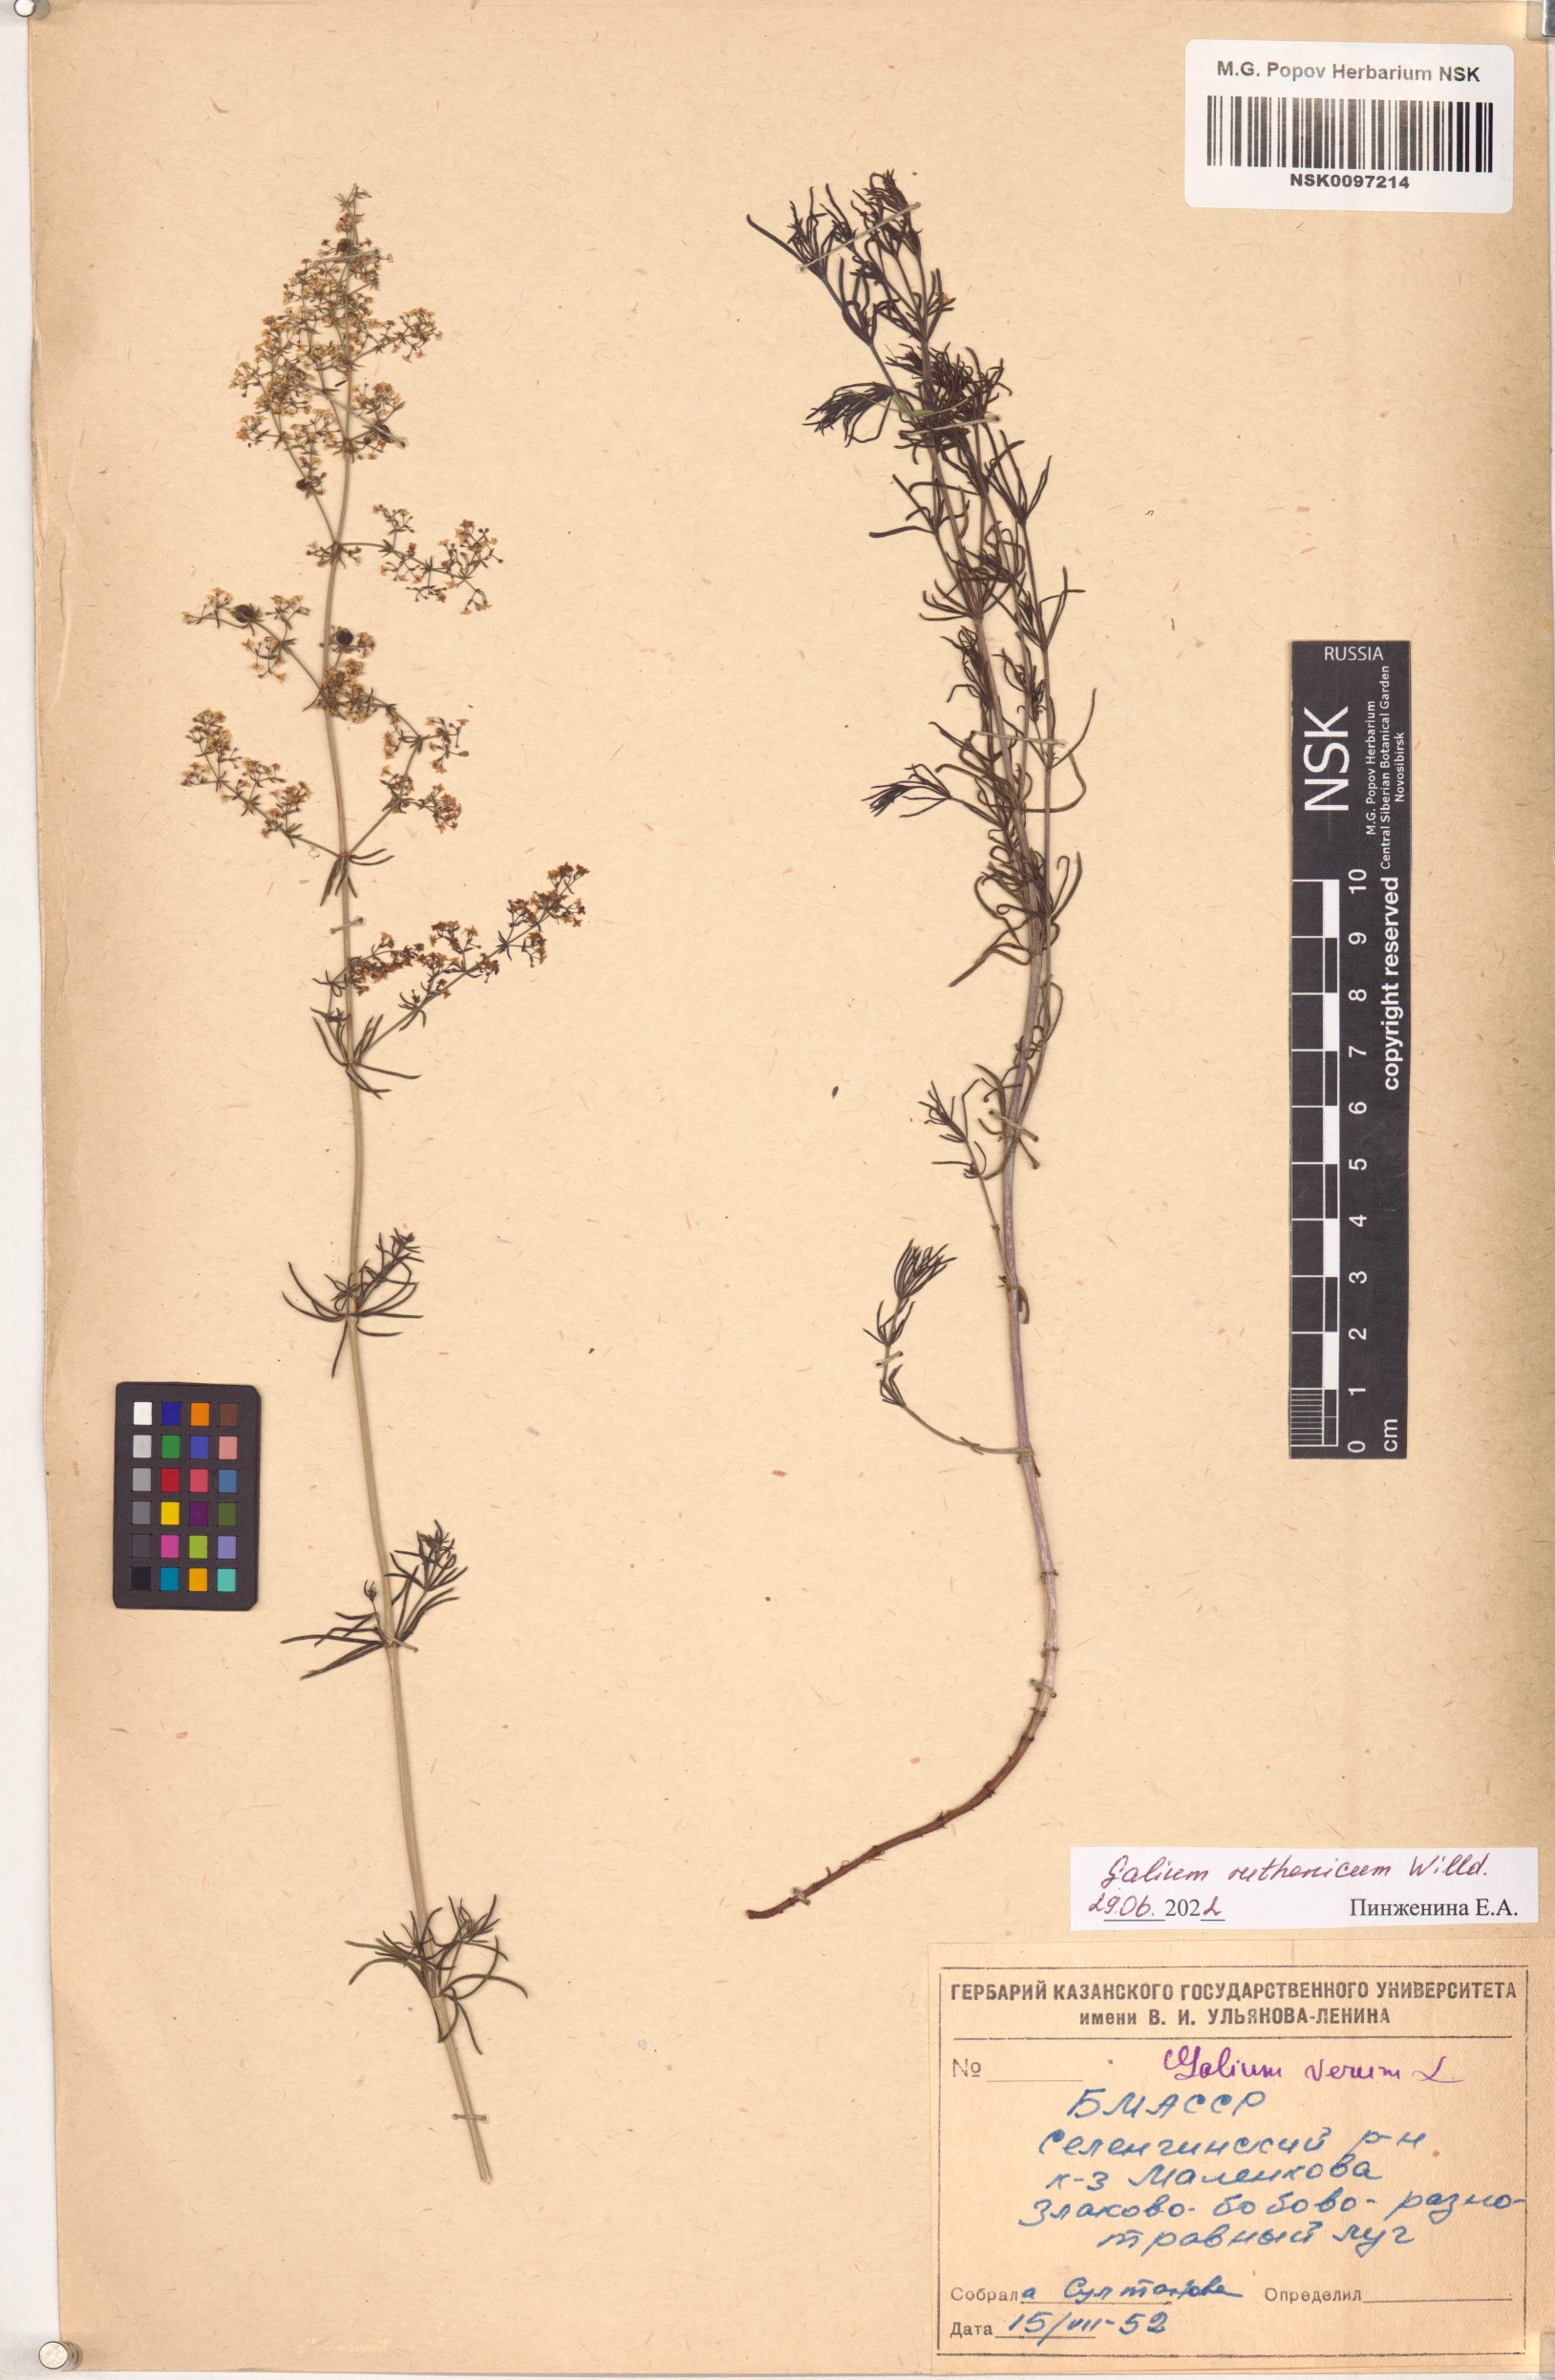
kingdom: Plantae
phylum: Tracheophyta
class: Magnoliopsida
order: Gentianales
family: Rubiaceae
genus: Galium
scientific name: Galium verum
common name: Lady's bedstraw
